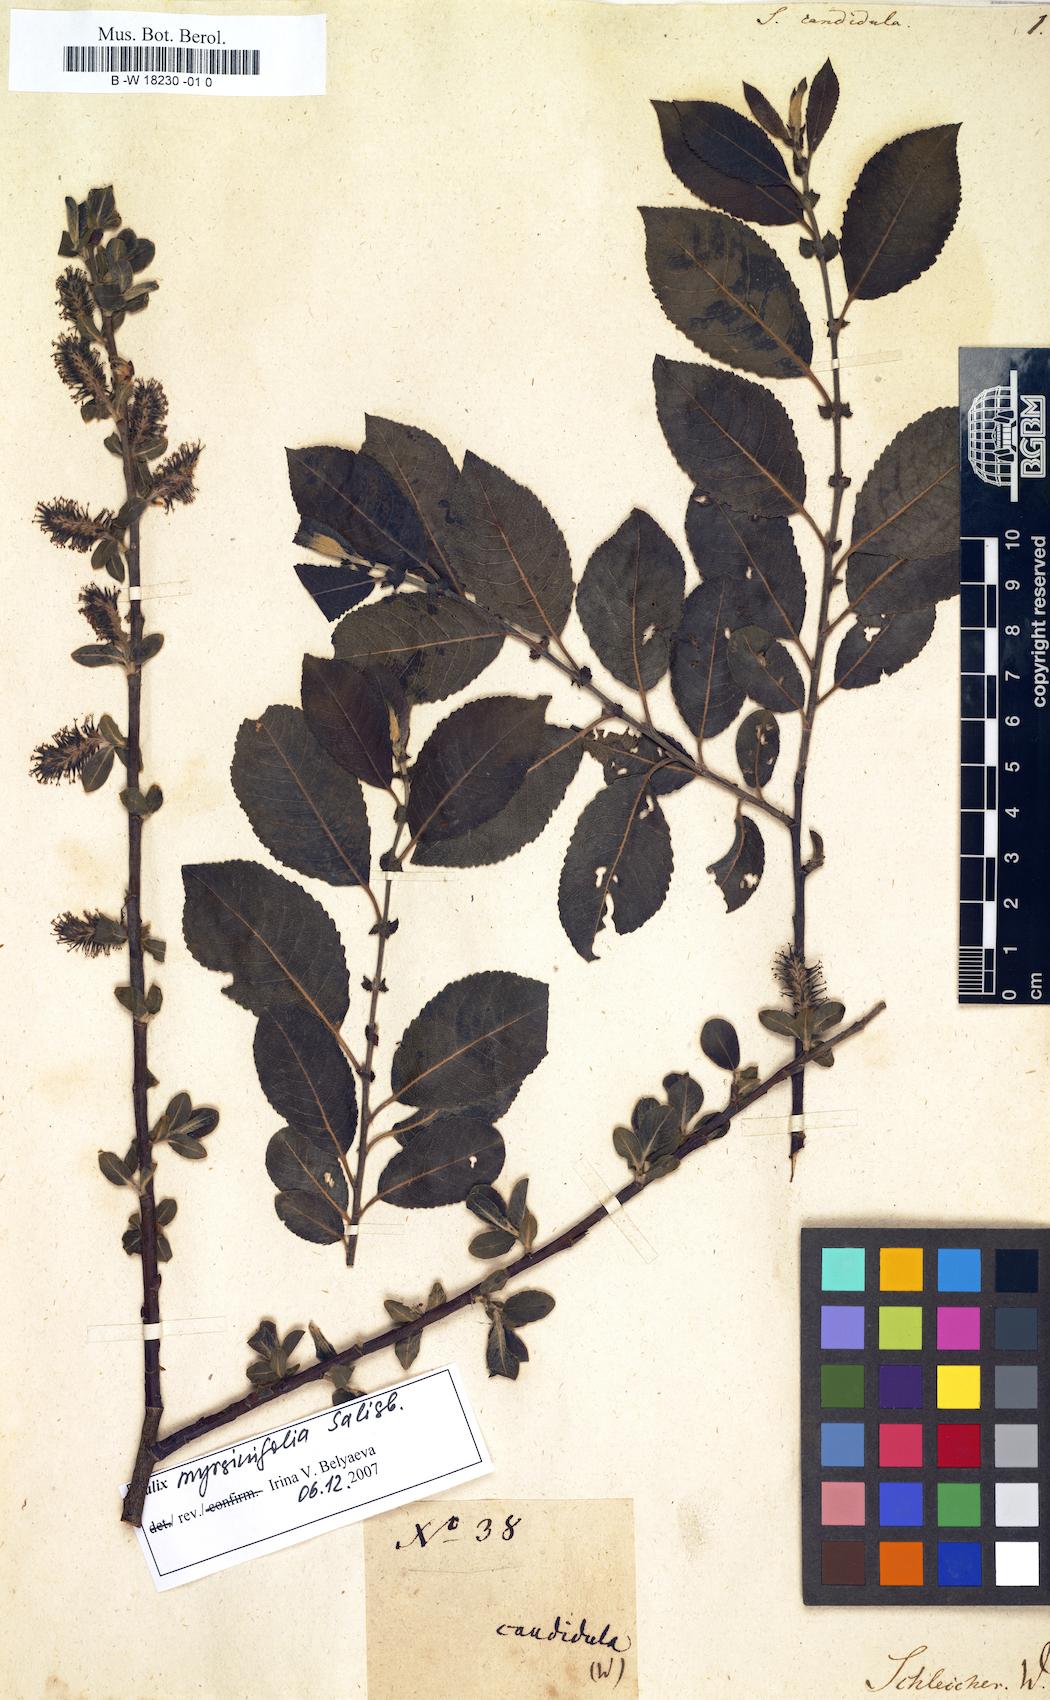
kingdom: Plantae
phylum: Tracheophyta
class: Magnoliopsida
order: Malpighiales
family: Salicaceae
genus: Salix
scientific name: Salix
